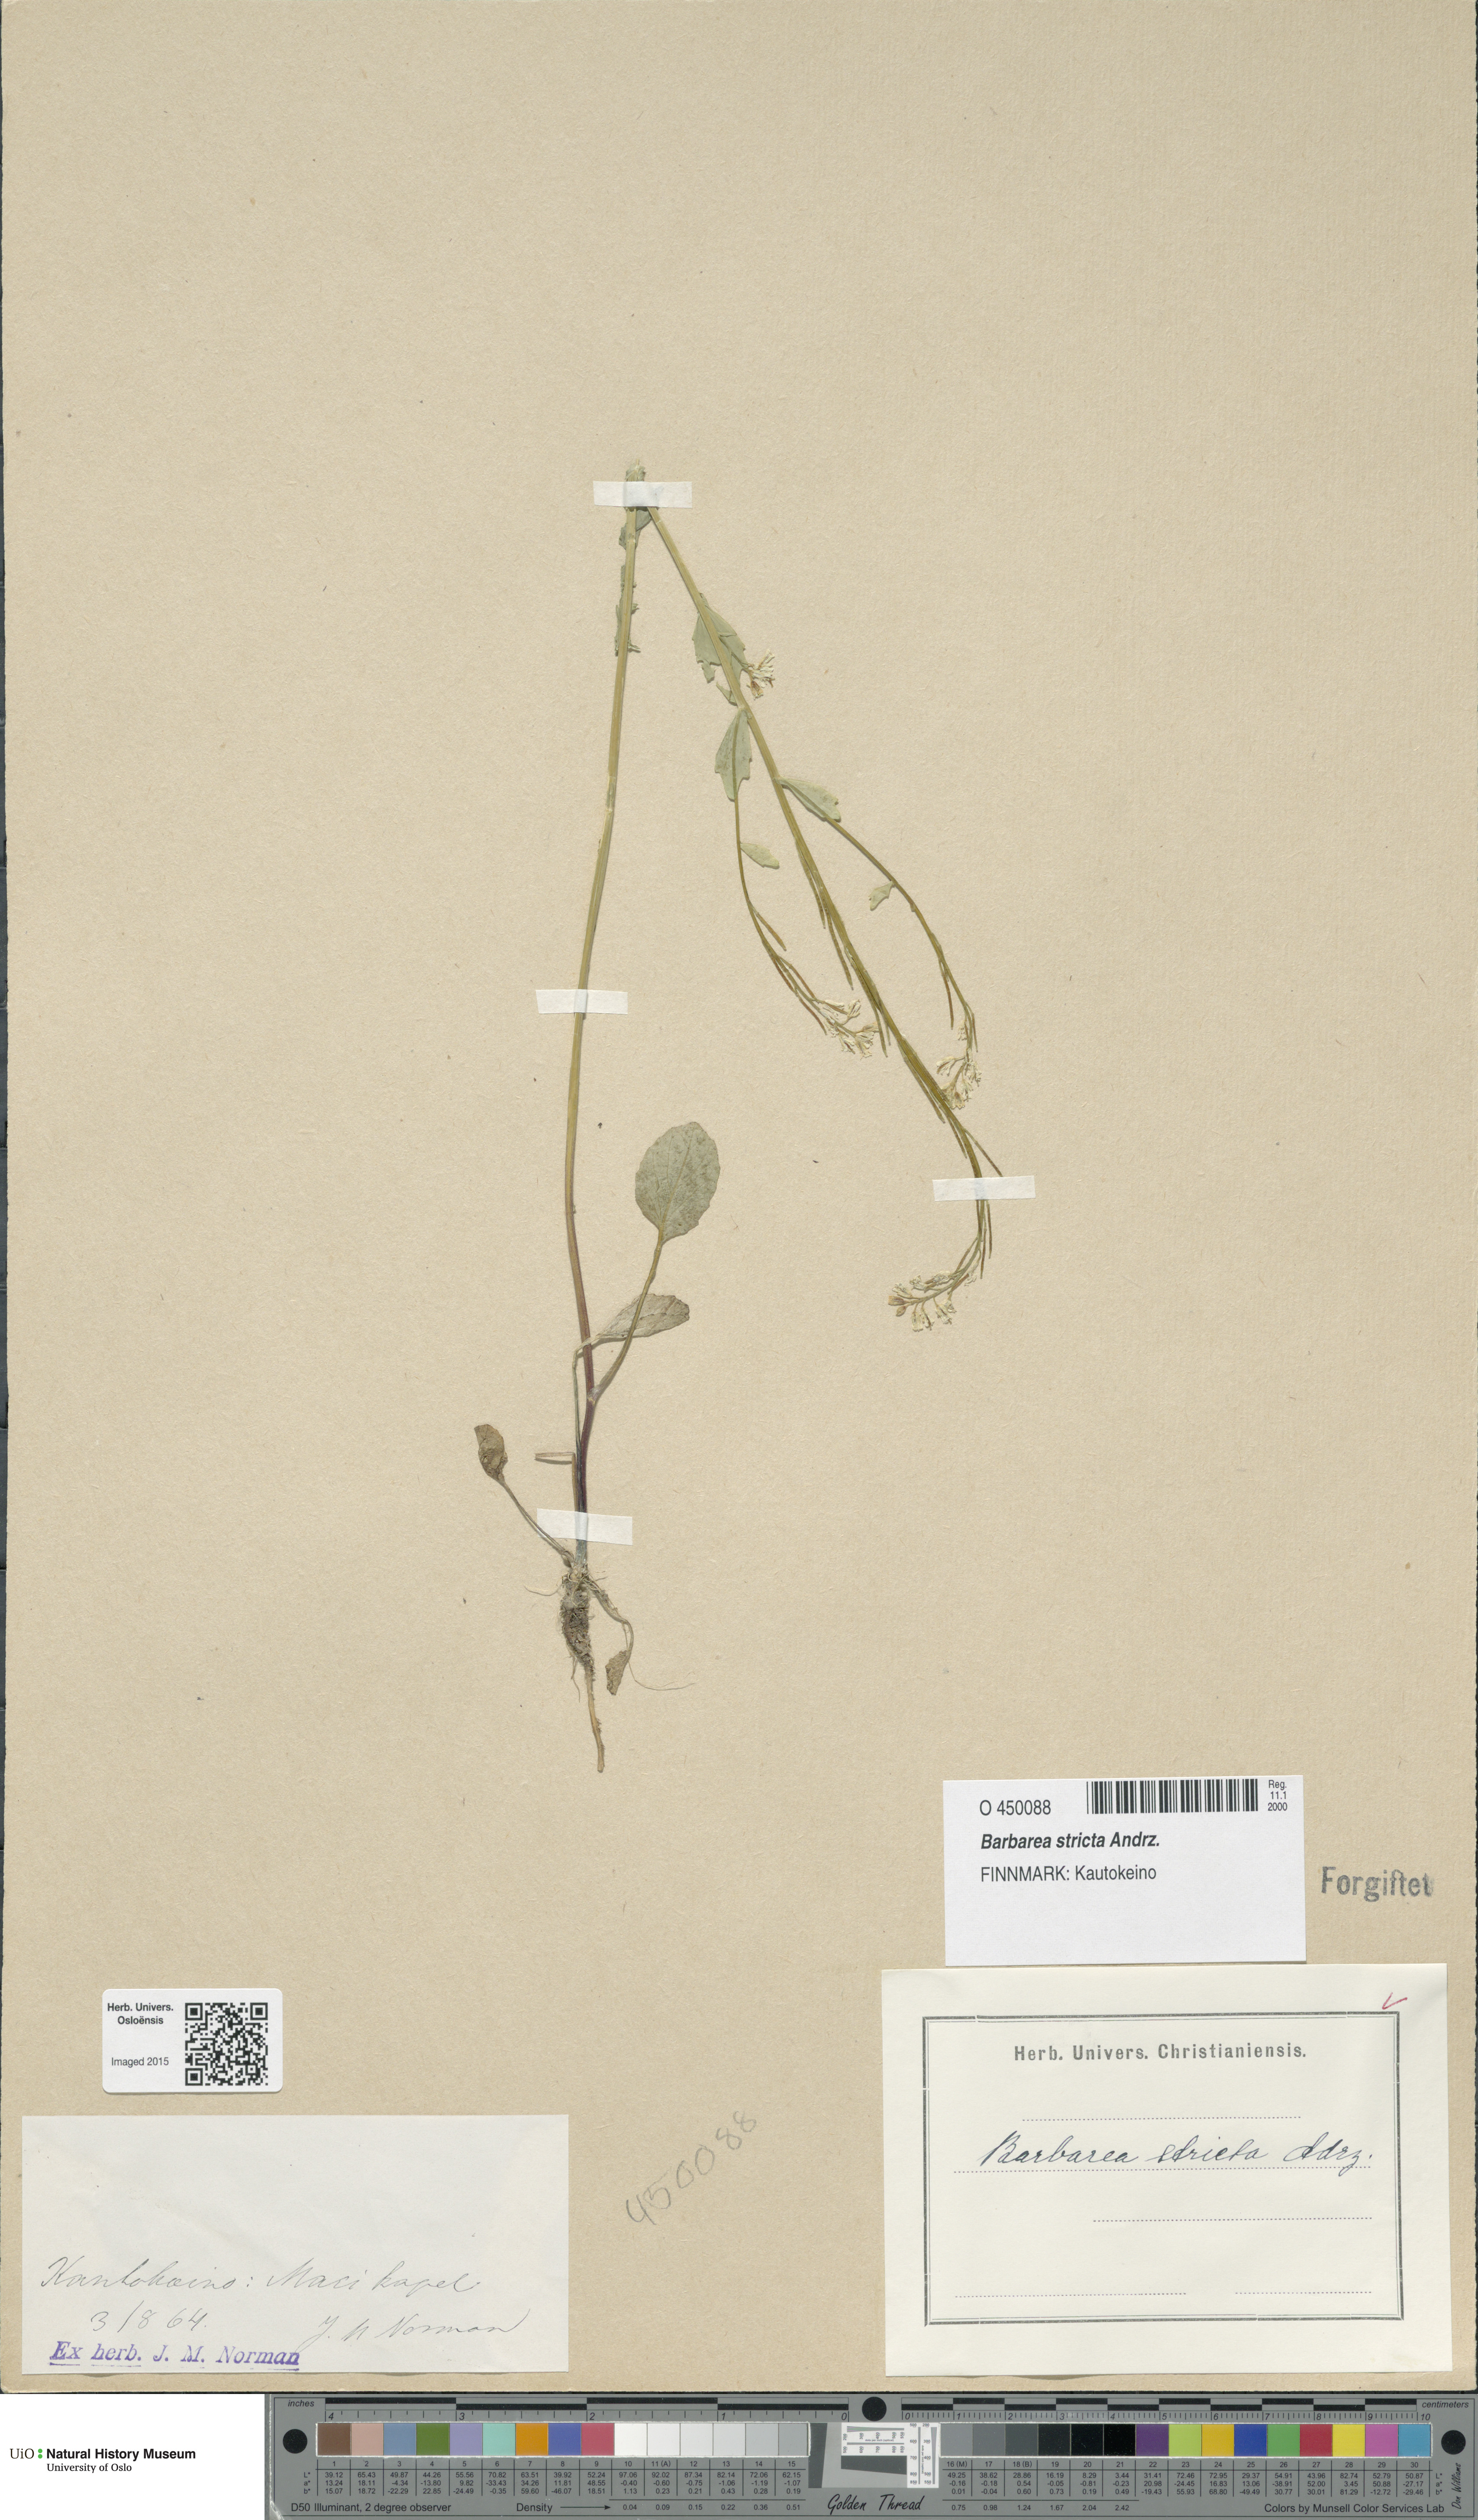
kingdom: Plantae
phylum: Tracheophyta
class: Magnoliopsida
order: Brassicales
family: Brassicaceae
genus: Barbarea
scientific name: Barbarea stricta
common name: Small-flowered winter-cress
